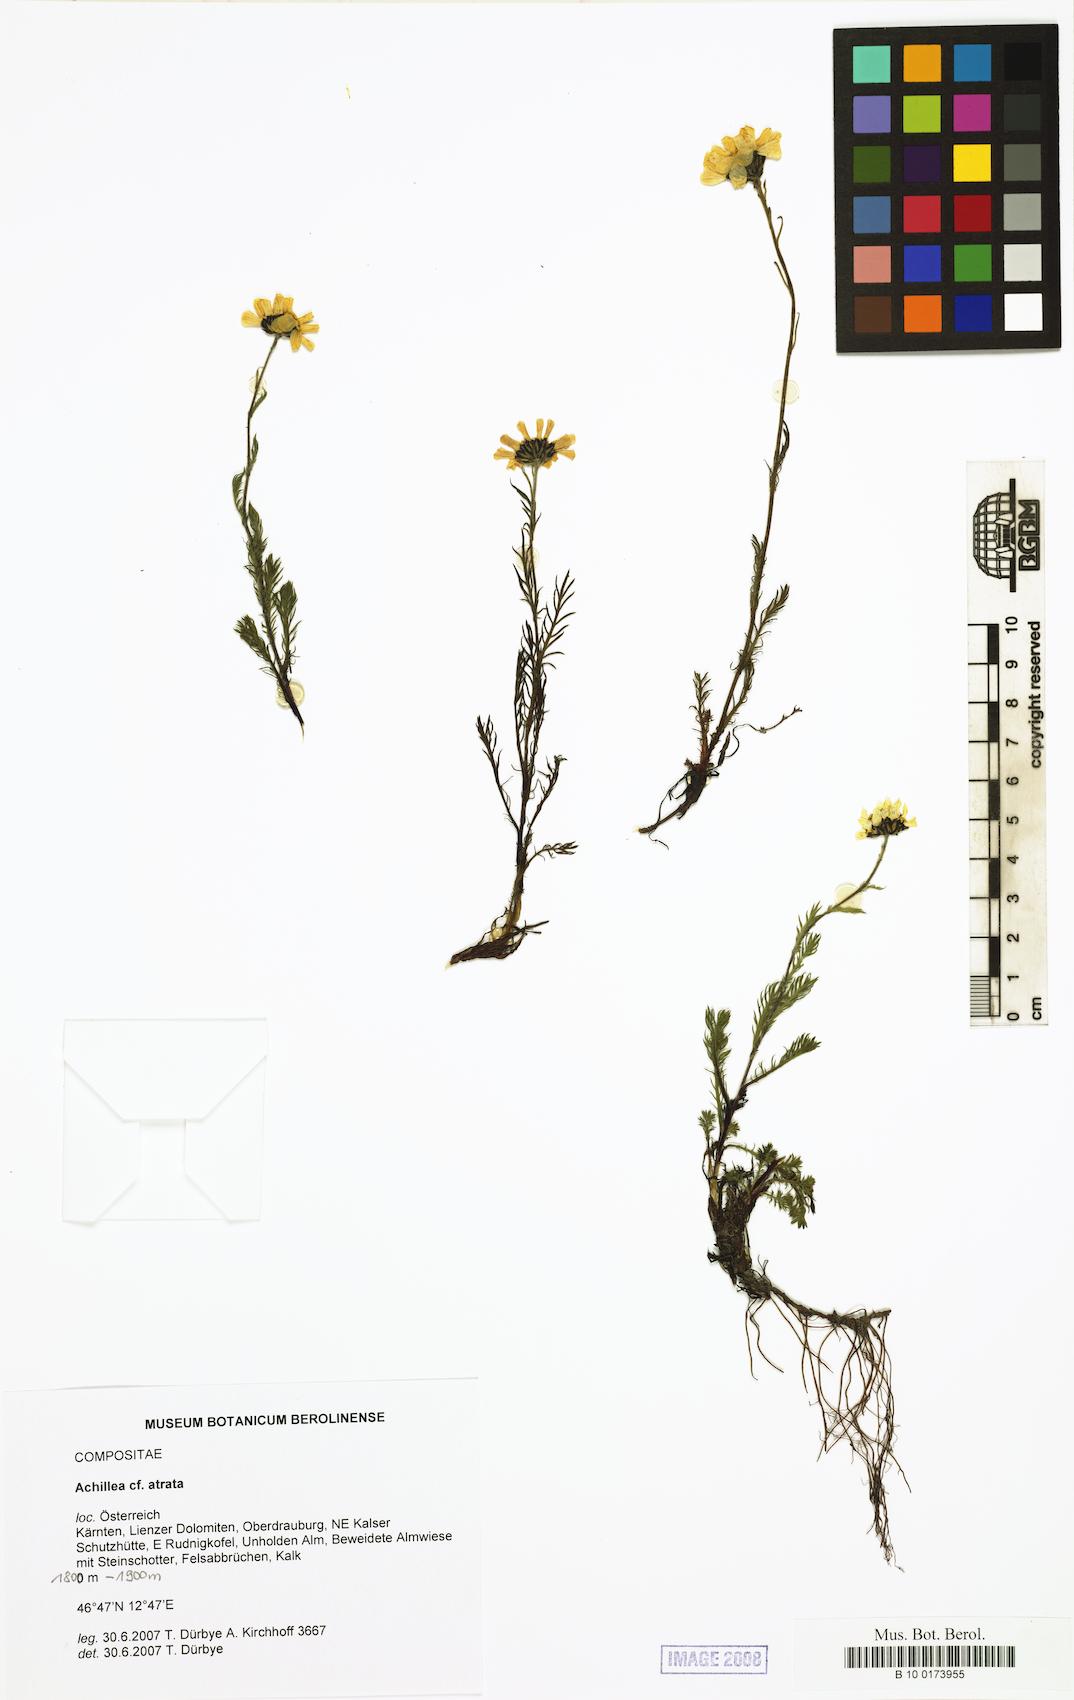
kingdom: Plantae
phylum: Tracheophyta
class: Magnoliopsida
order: Asterales
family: Asteraceae
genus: Achillea
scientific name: Achillea atrata
